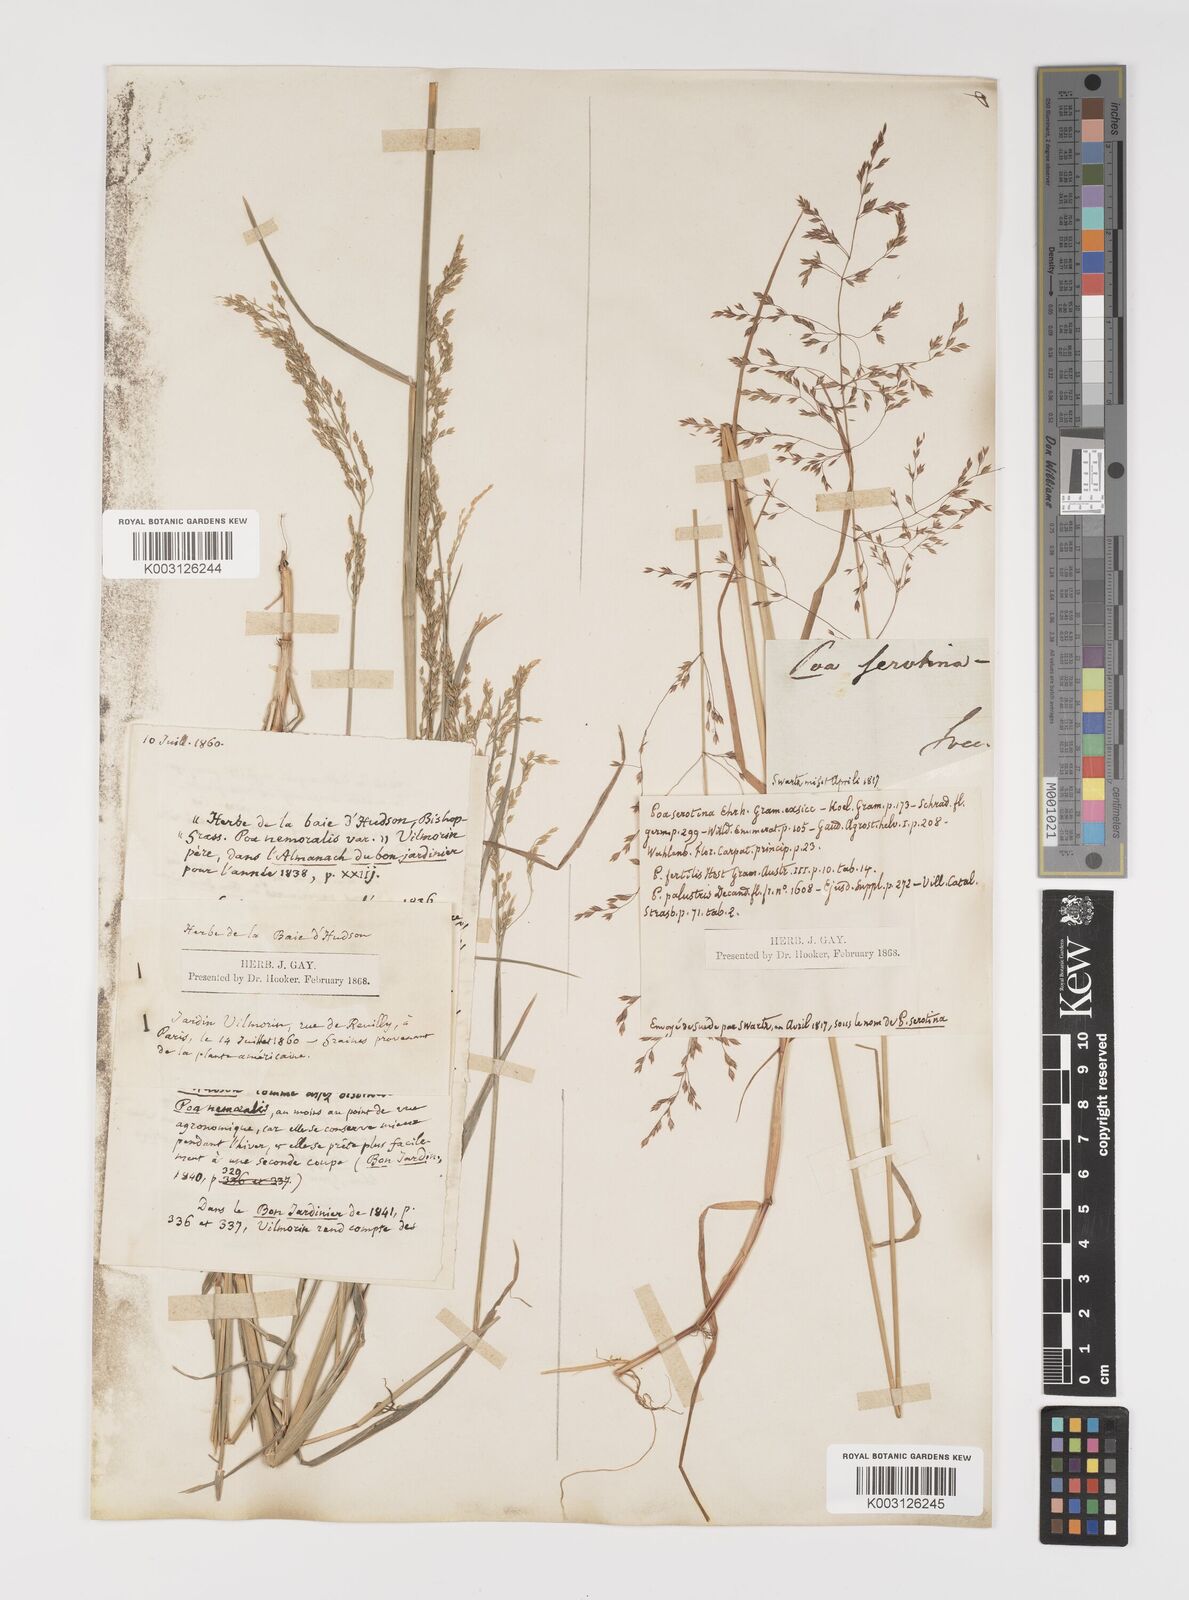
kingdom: Plantae
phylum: Tracheophyta
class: Liliopsida
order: Poales
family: Poaceae
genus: Poa
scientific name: Poa palustris
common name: Swamp meadow-grass
